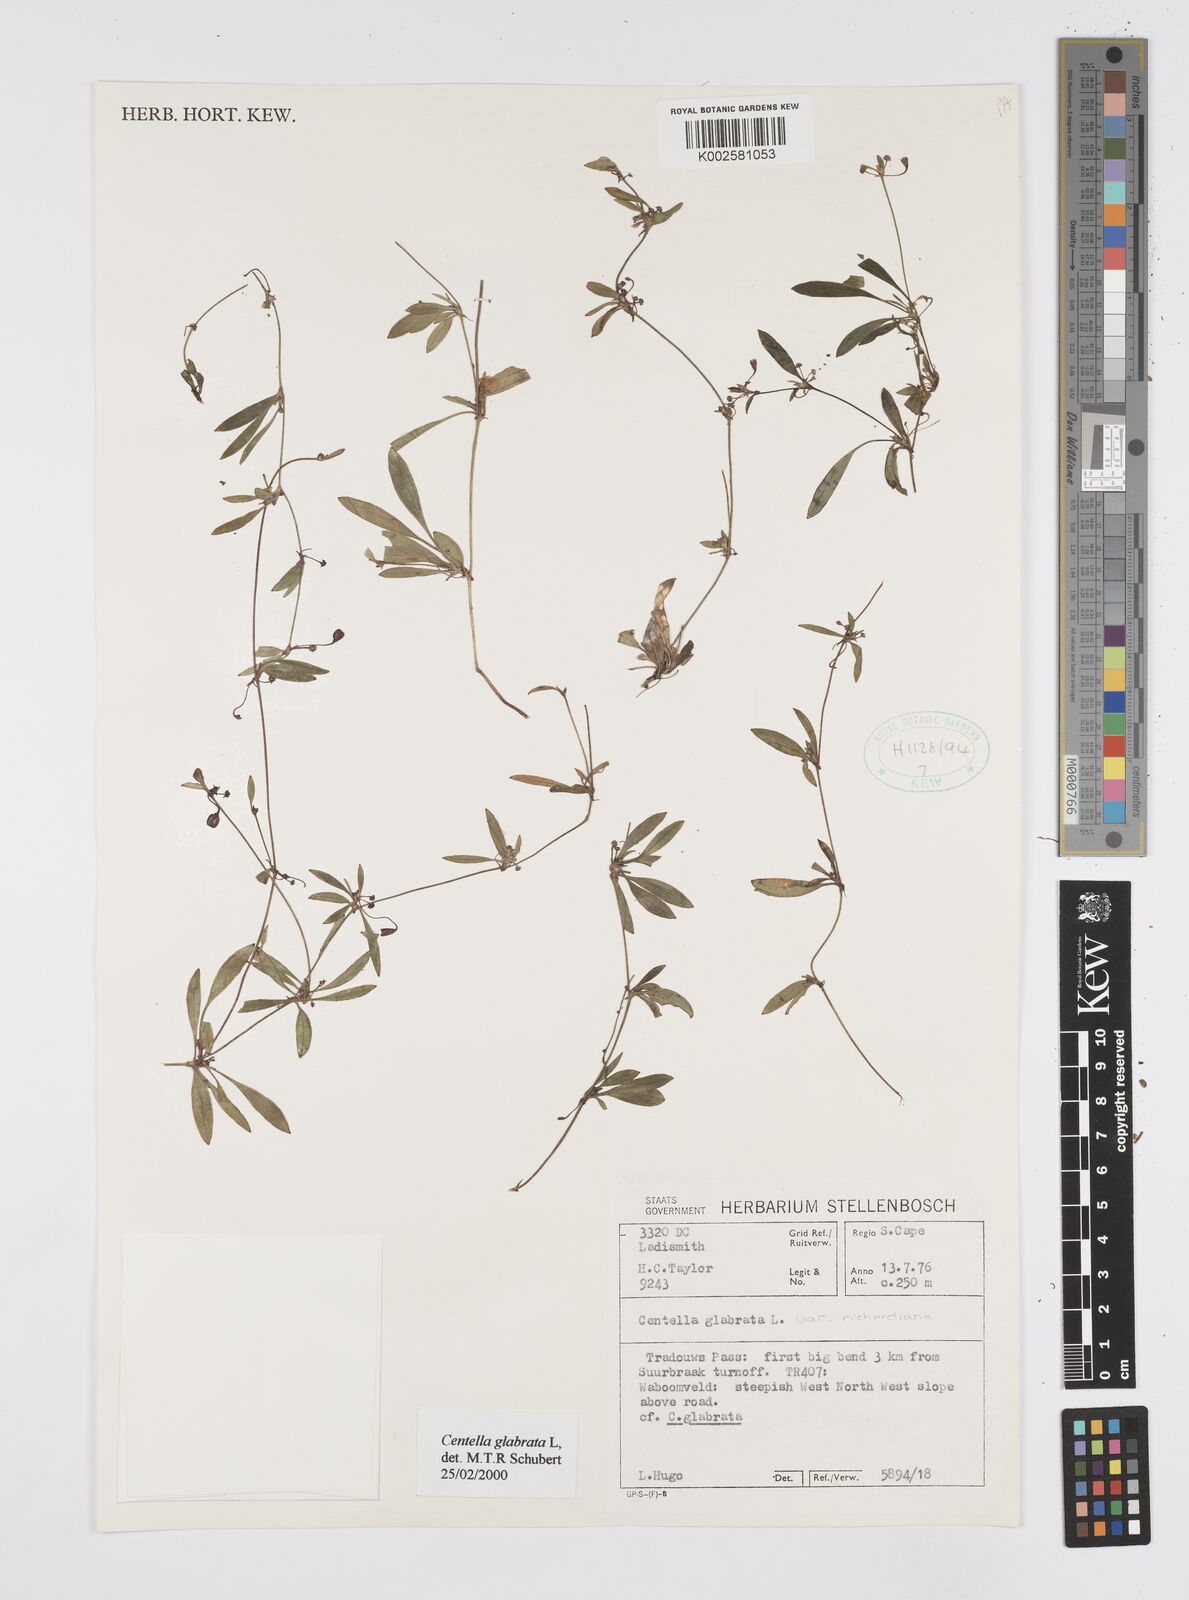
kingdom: Plantae
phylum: Tracheophyta
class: Magnoliopsida
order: Apiales
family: Apiaceae
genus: Centella
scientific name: Centella glabrata
